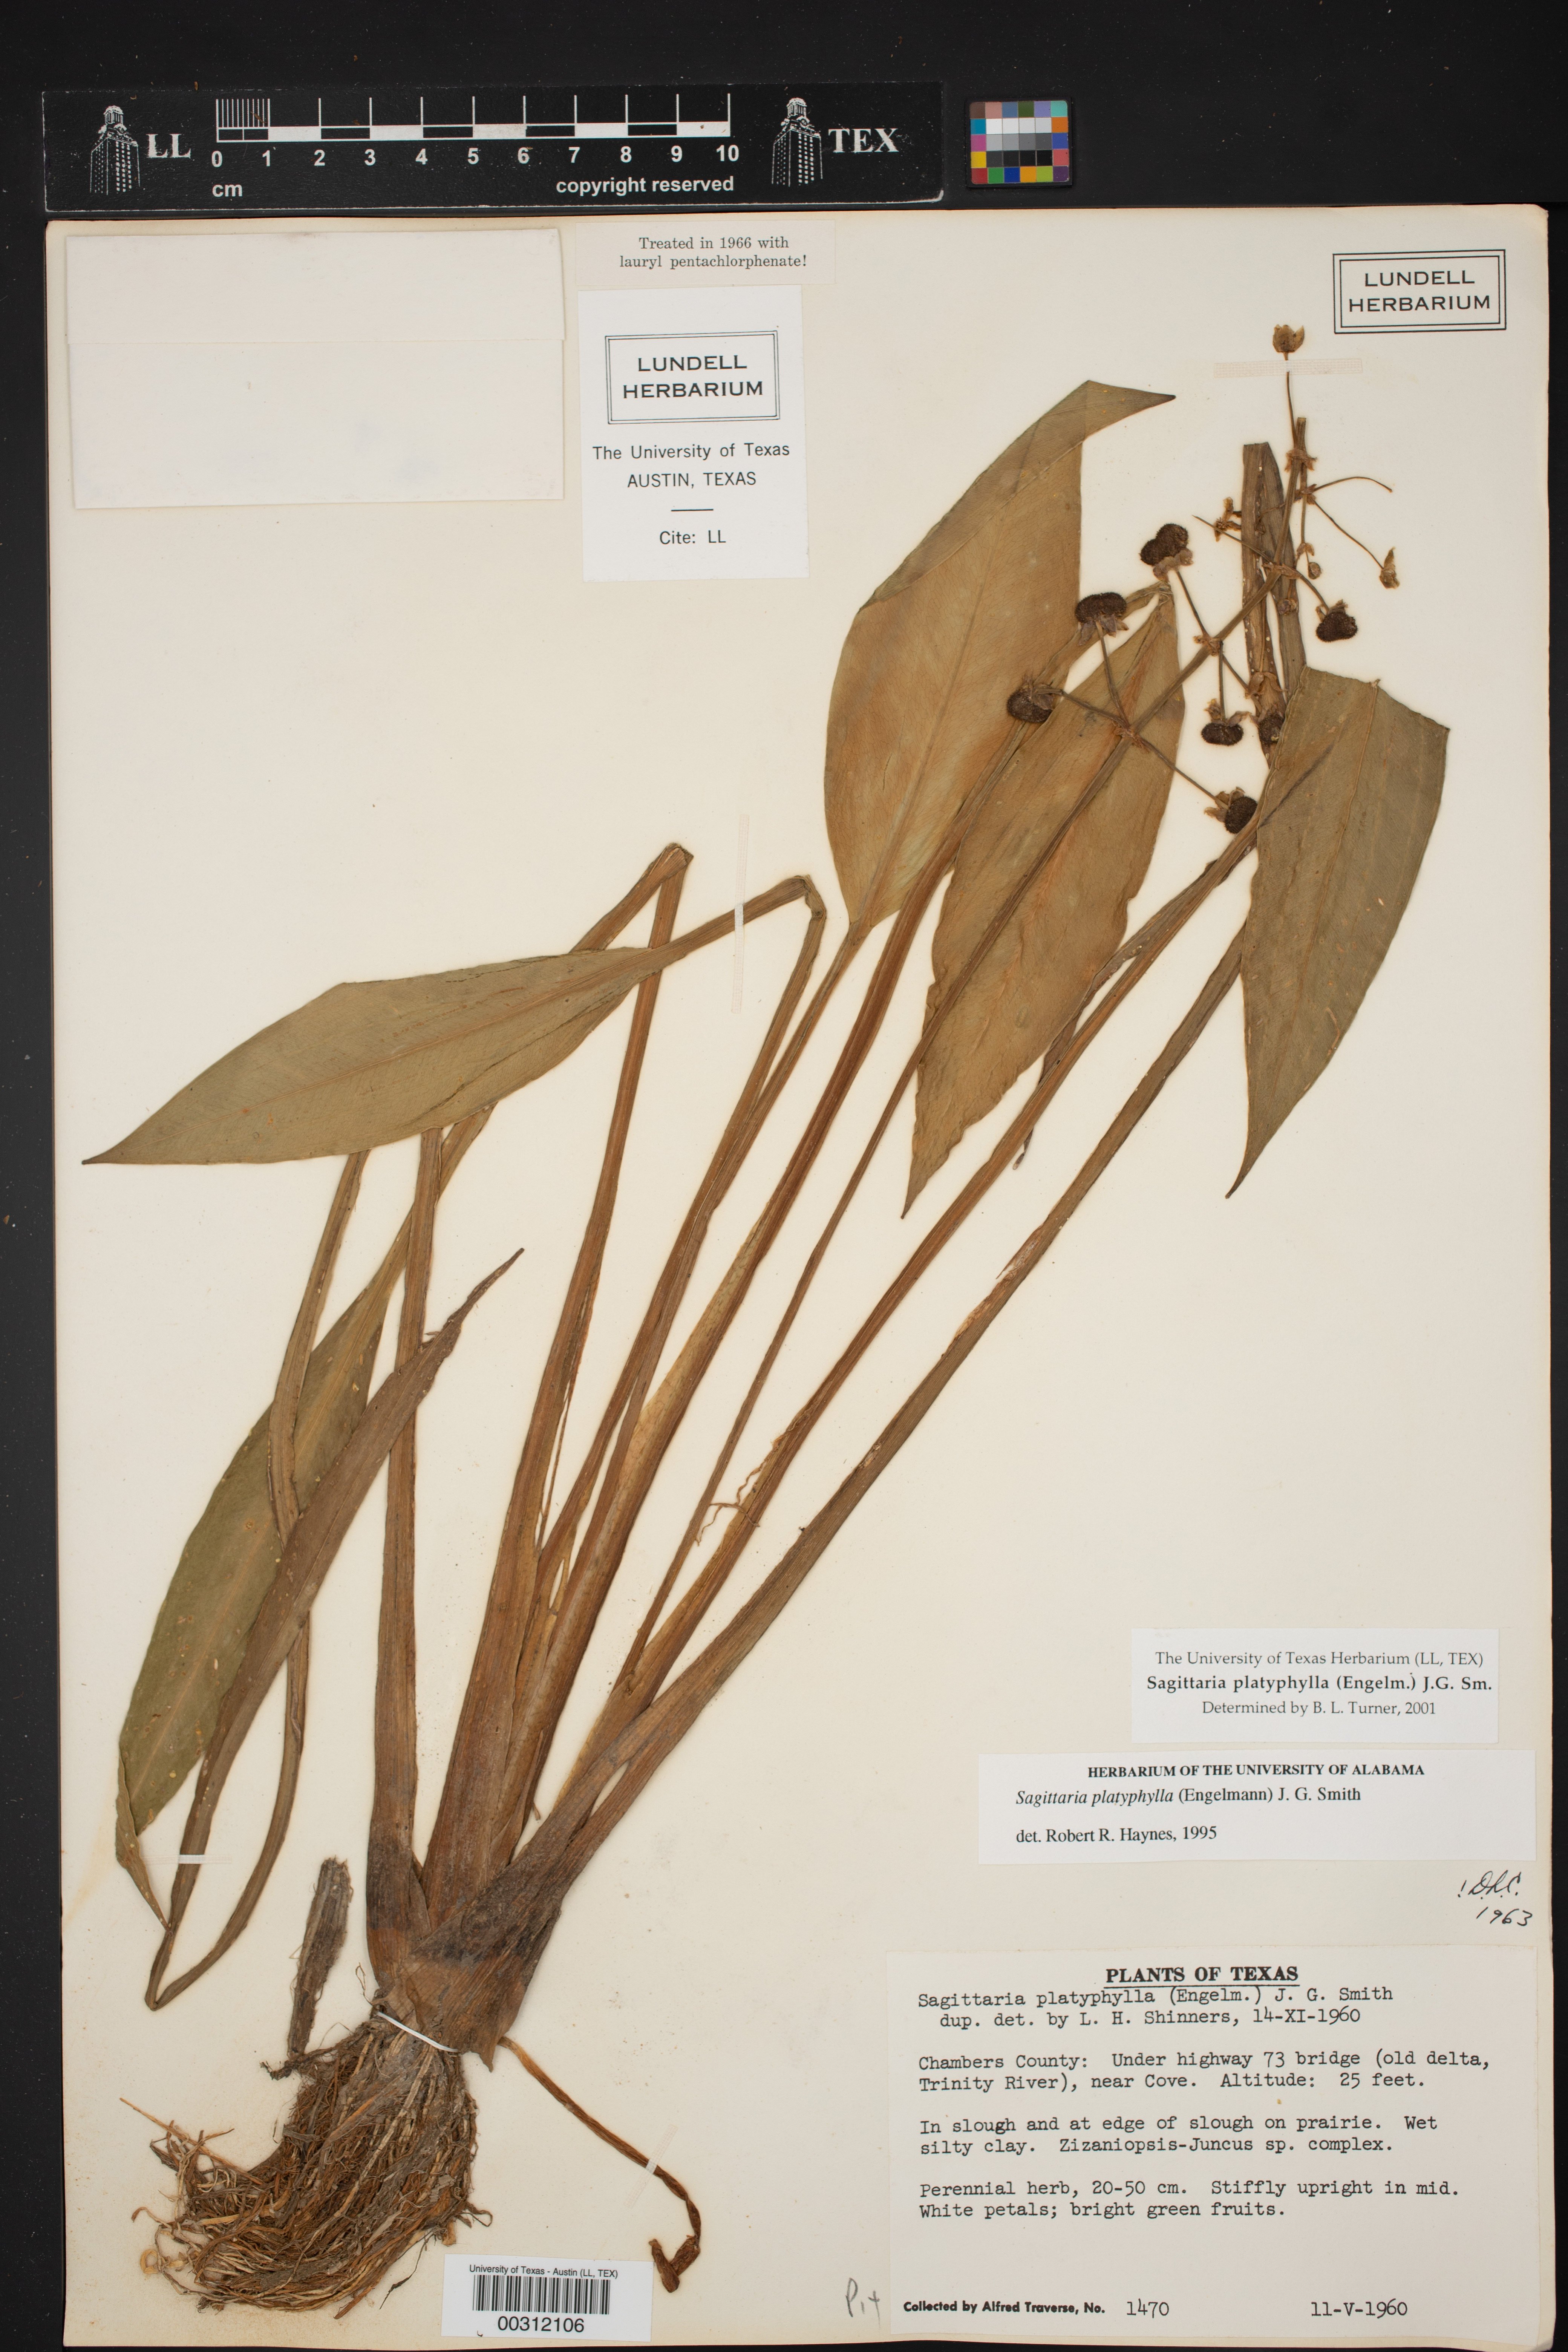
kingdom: Plantae
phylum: Tracheophyta
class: Liliopsida
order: Alismatales
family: Alismataceae
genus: Sagittaria
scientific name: Sagittaria platyphylla
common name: Broad-leaf arrowhead
